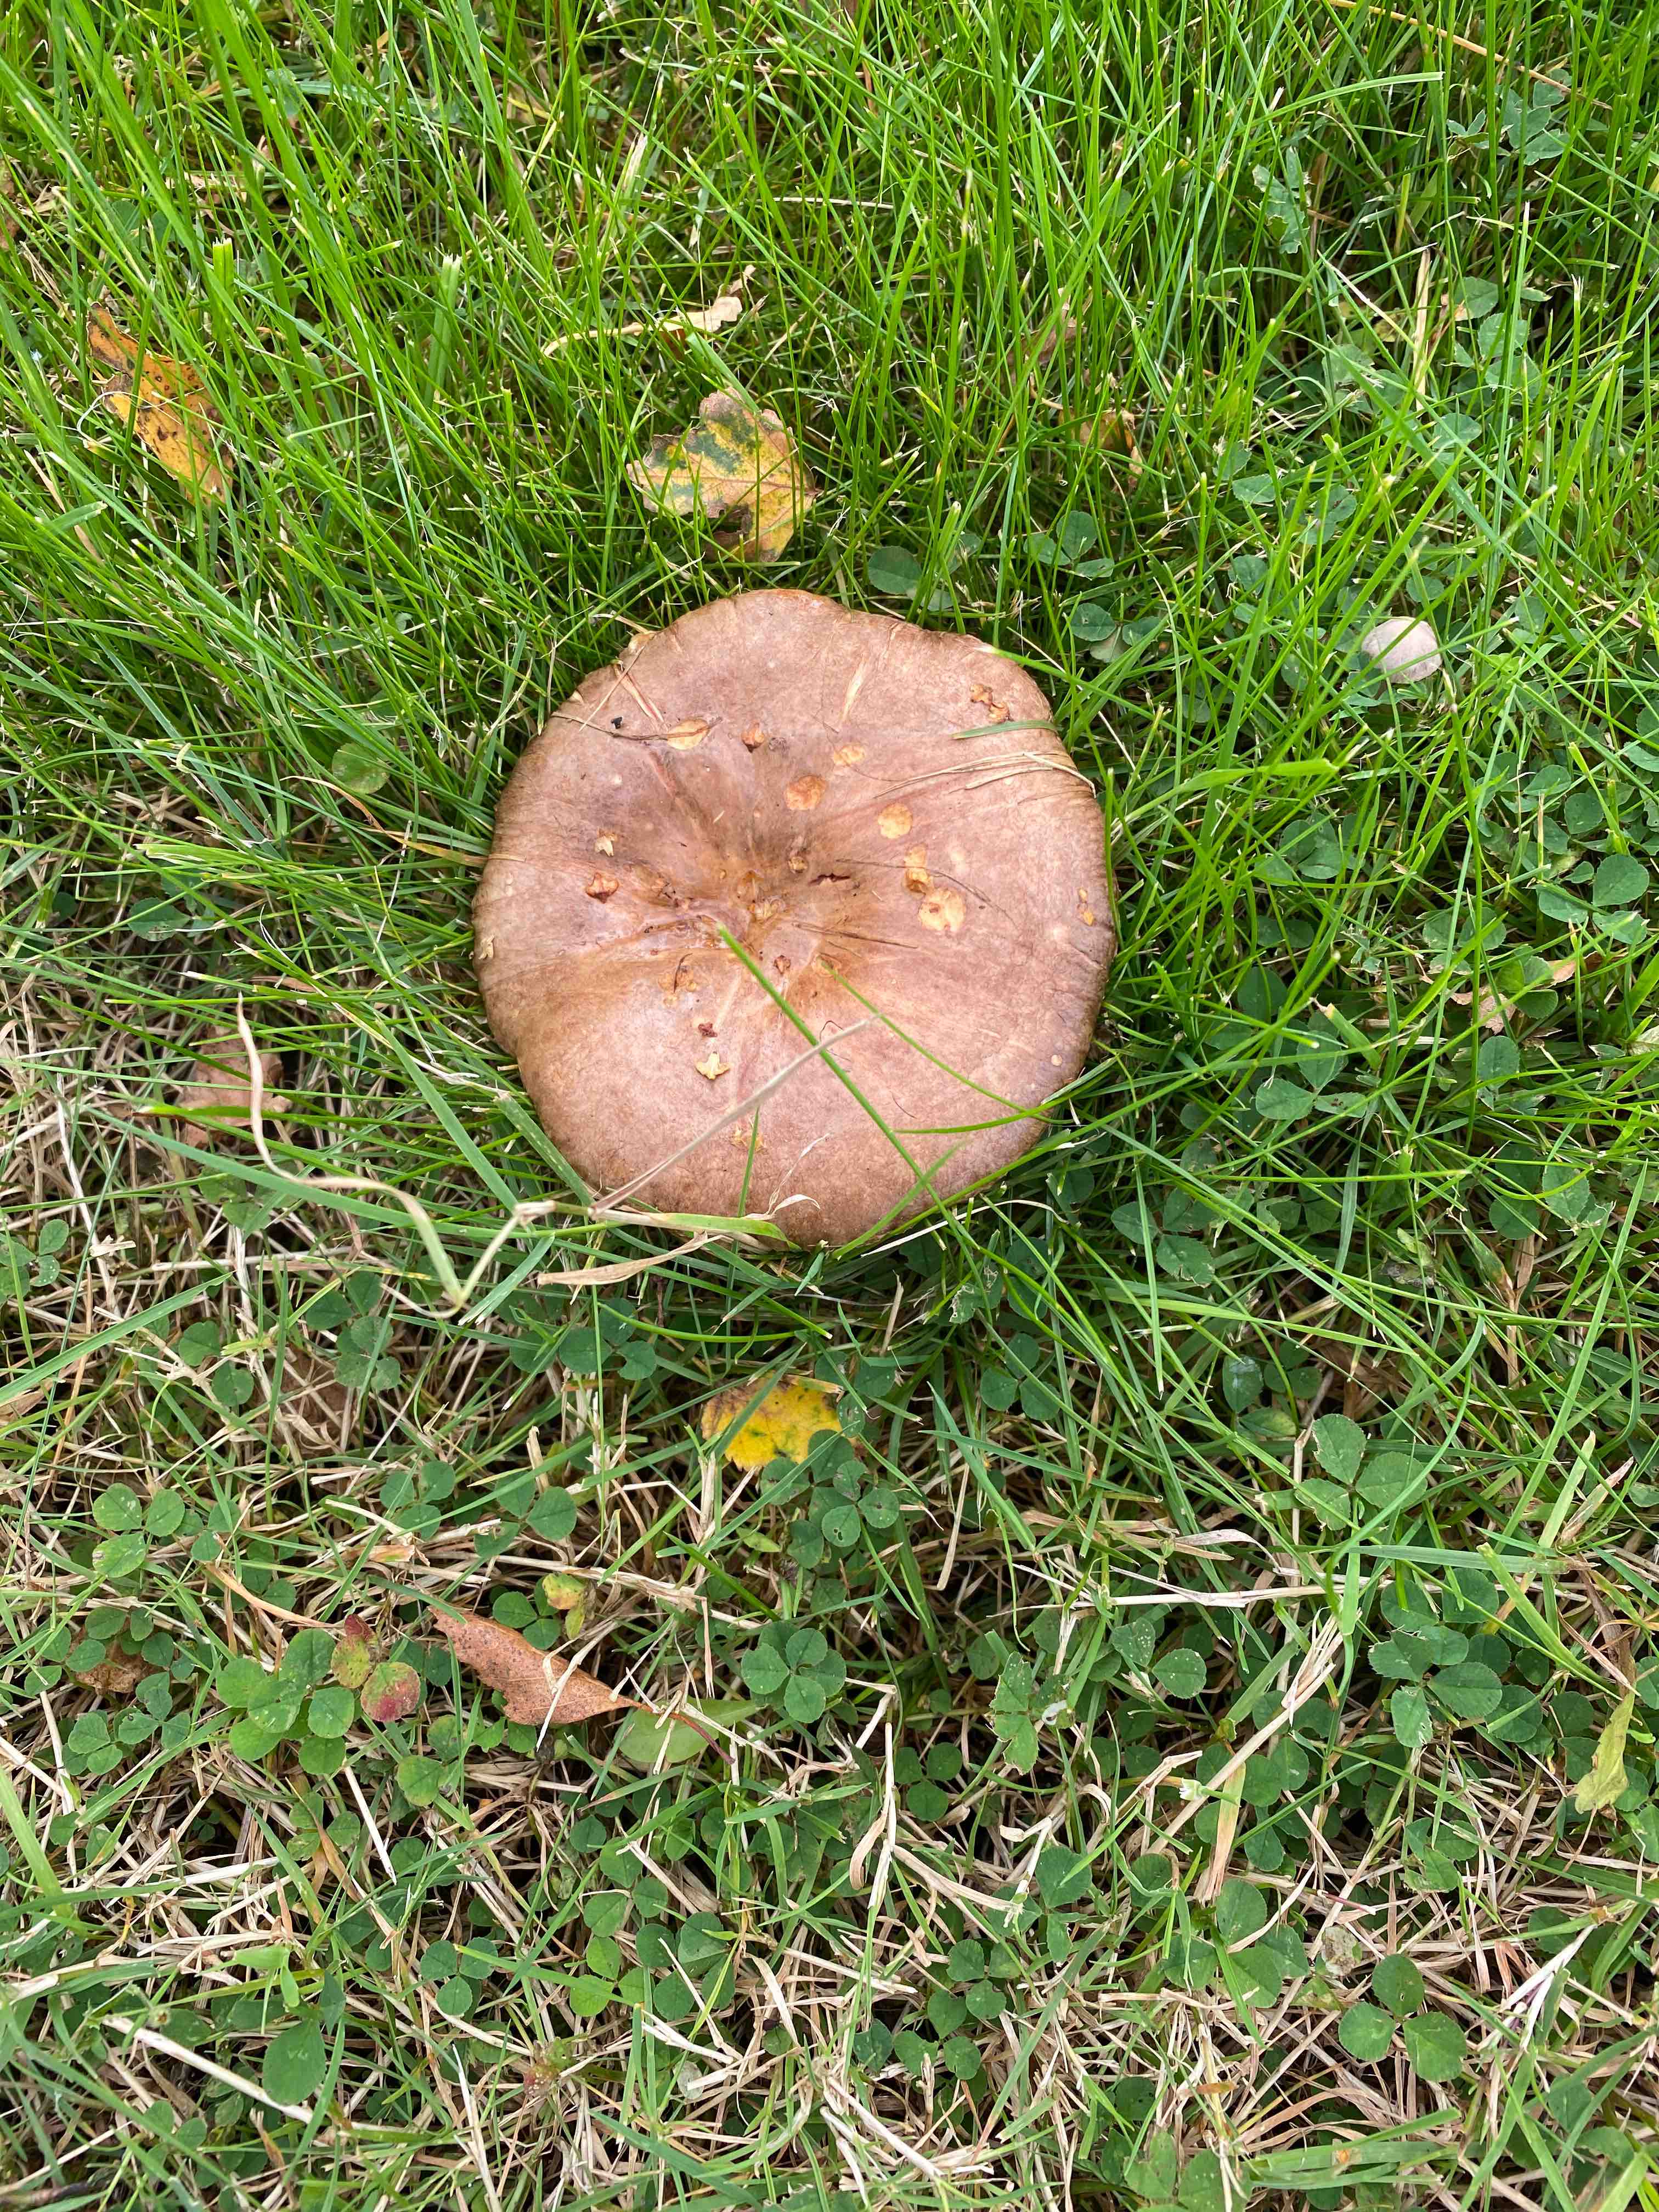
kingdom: Fungi
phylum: Basidiomycota
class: Agaricomycetes
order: Boletales
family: Paxillaceae
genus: Paxillus
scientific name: Paxillus
